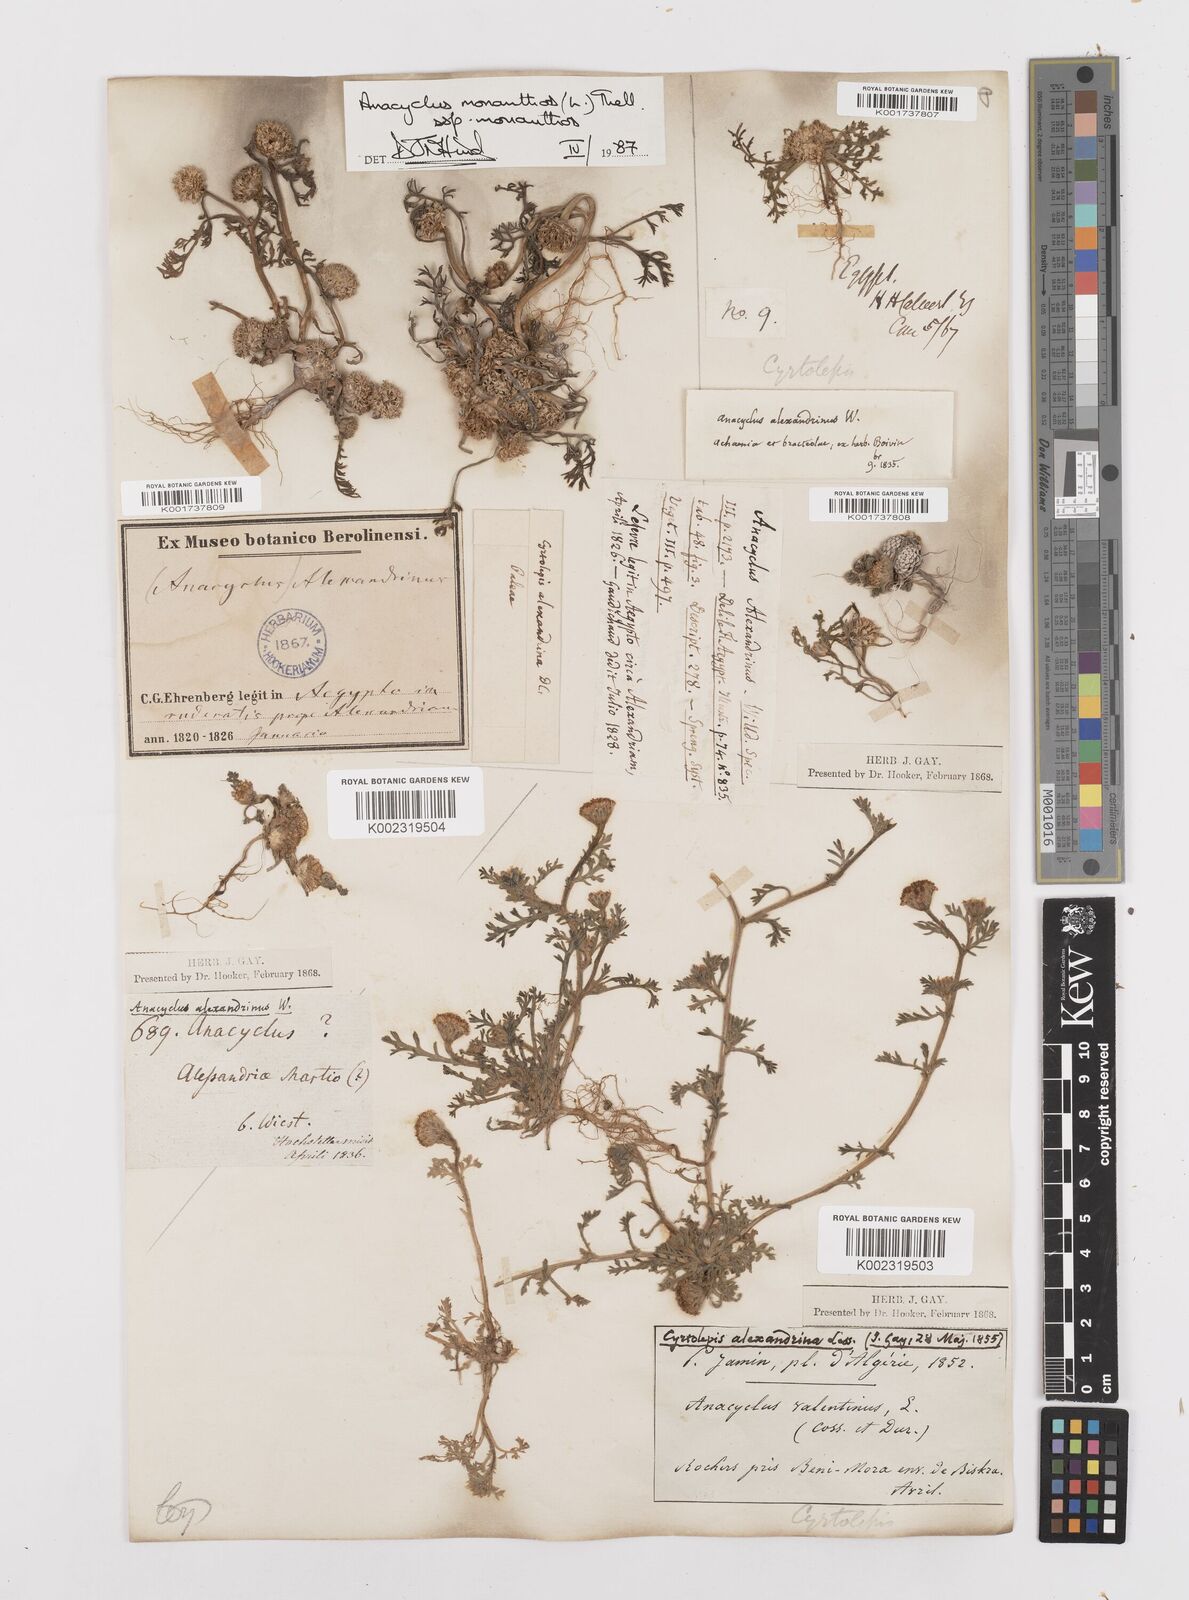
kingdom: Plantae
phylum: Tracheophyta
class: Magnoliopsida
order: Asterales
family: Asteraceae
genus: Anacyclus
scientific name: Anacyclus monanthos
